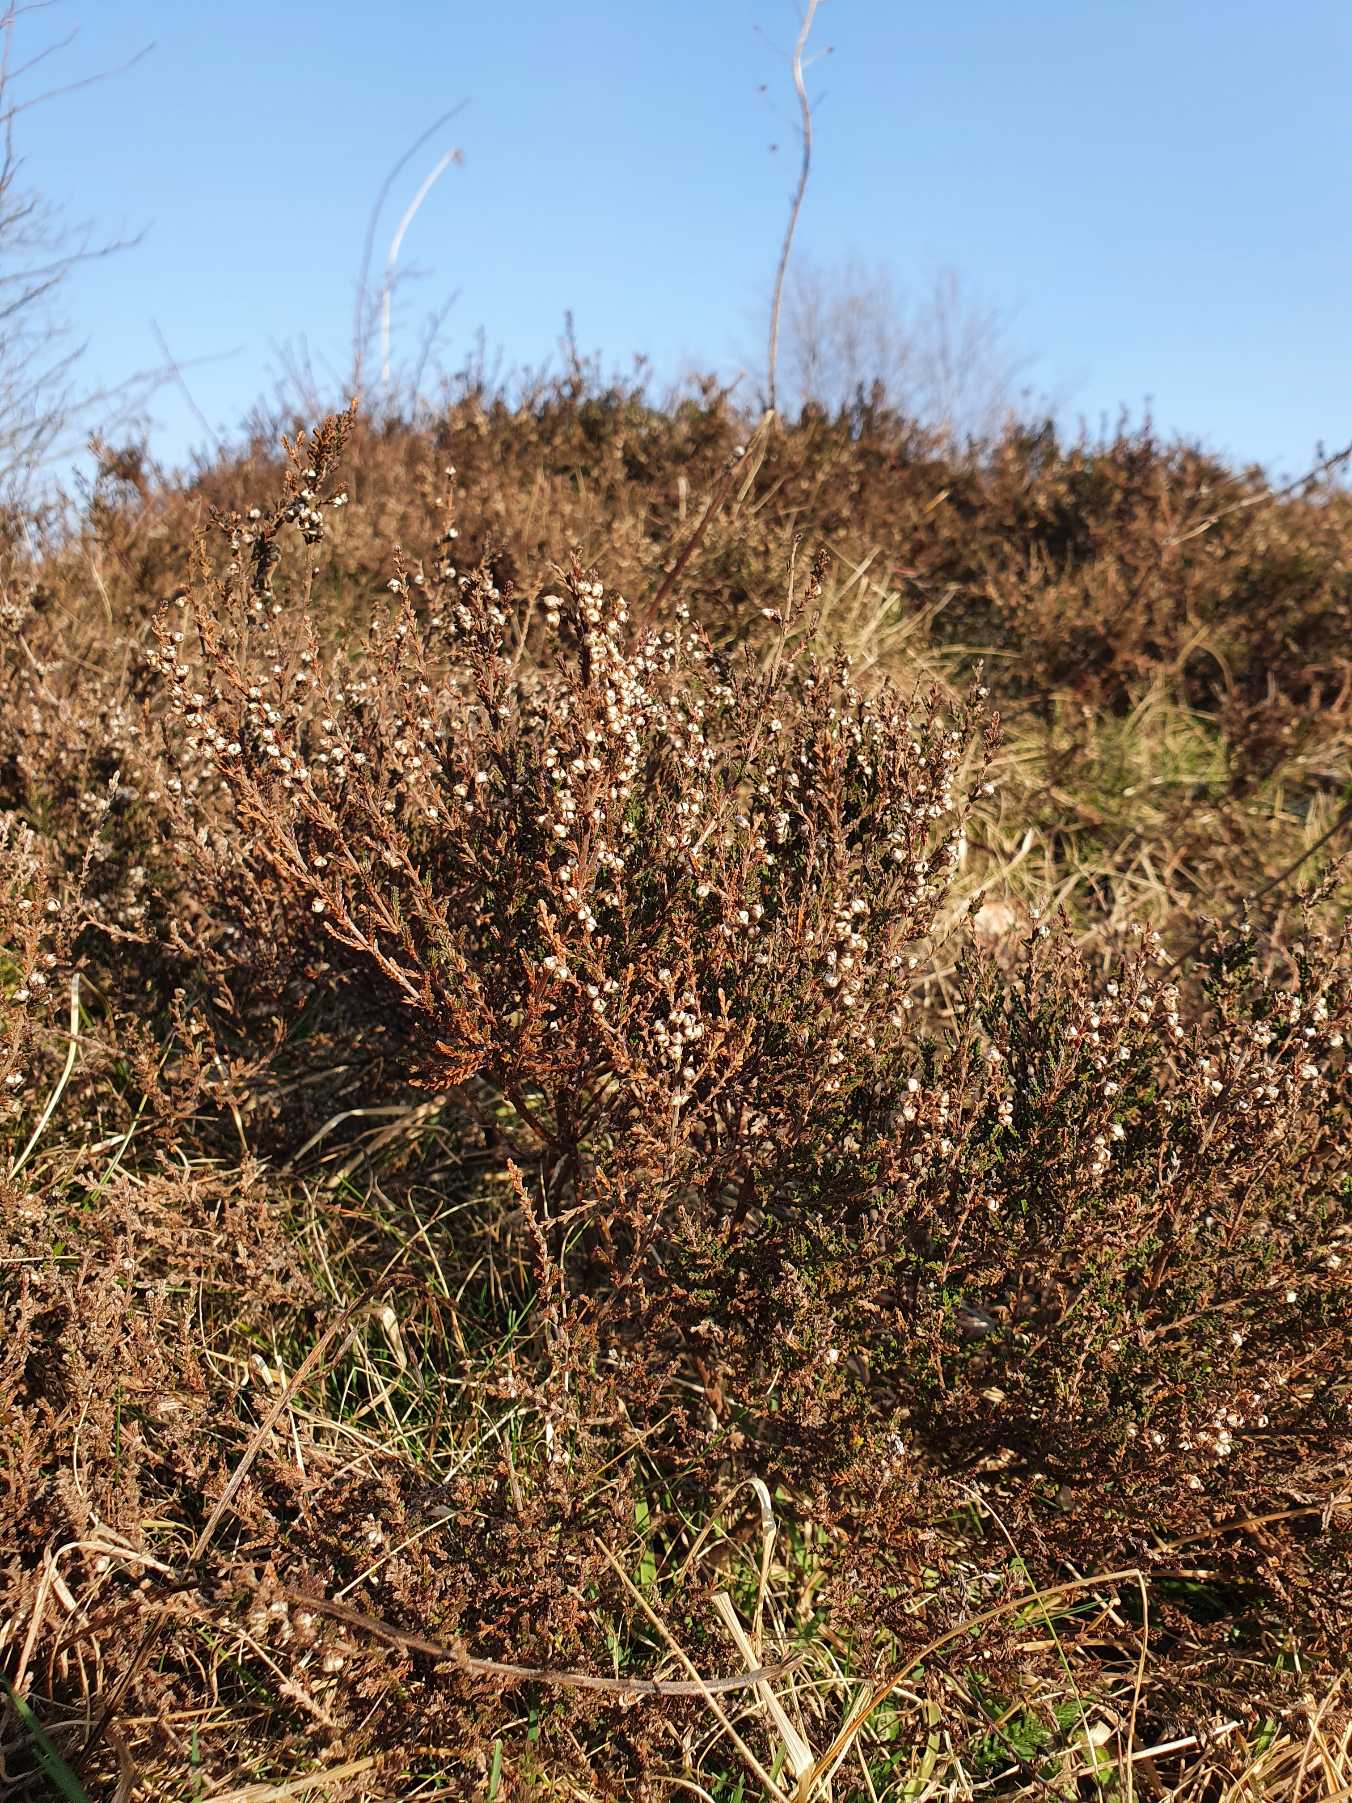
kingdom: Plantae
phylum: Tracheophyta
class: Magnoliopsida
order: Ericales
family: Ericaceae
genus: Calluna
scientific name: Calluna vulgaris
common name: Hedelyng
